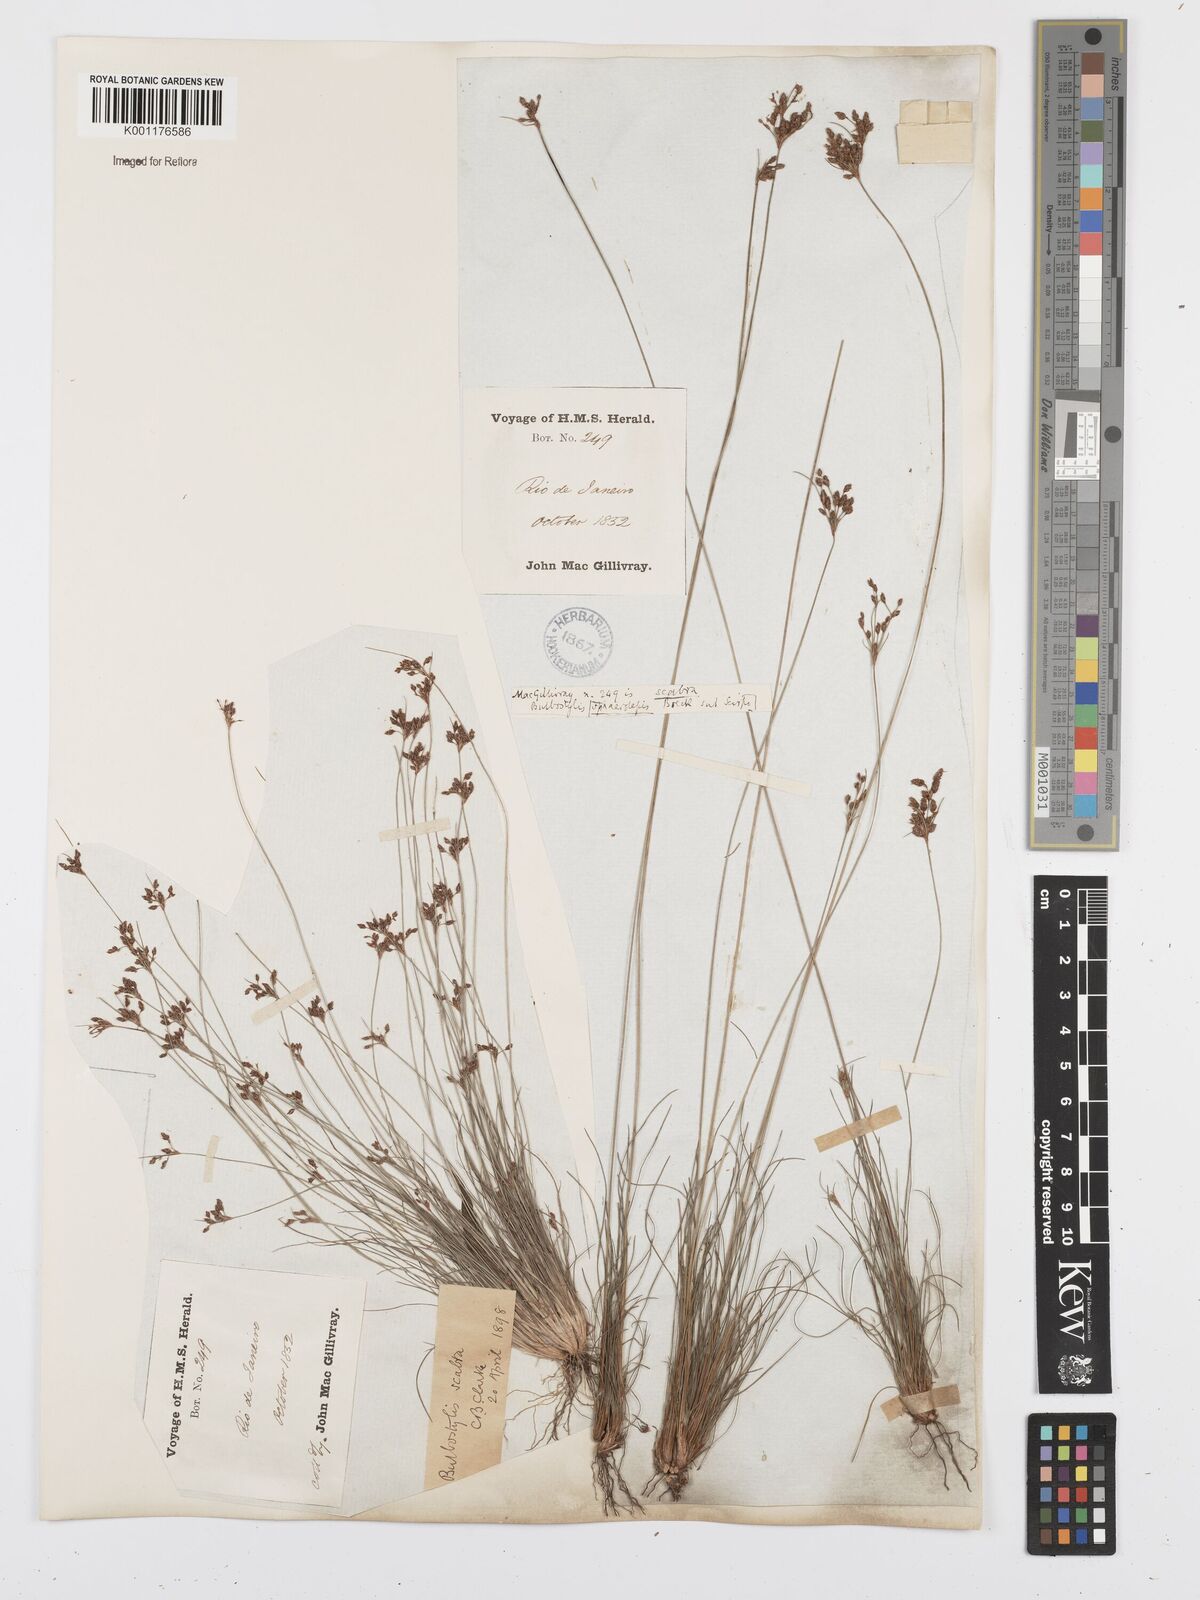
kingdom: Plantae
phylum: Tracheophyta
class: Liliopsida
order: Poales
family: Cyperaceae
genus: Bulbostylis
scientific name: Bulbostylis scabra
